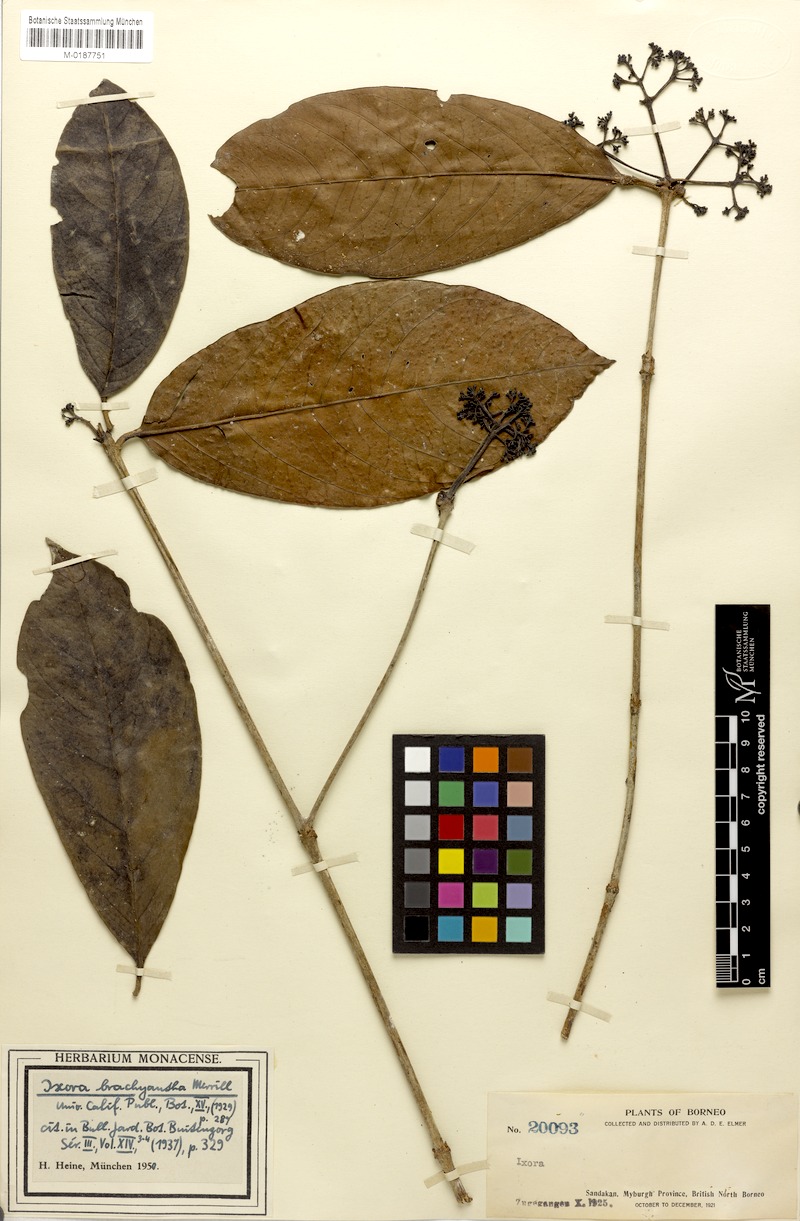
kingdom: Plantae
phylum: Tracheophyta
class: Magnoliopsida
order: Gentianales
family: Rubiaceae
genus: Ixora
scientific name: Ixora brachyantha
